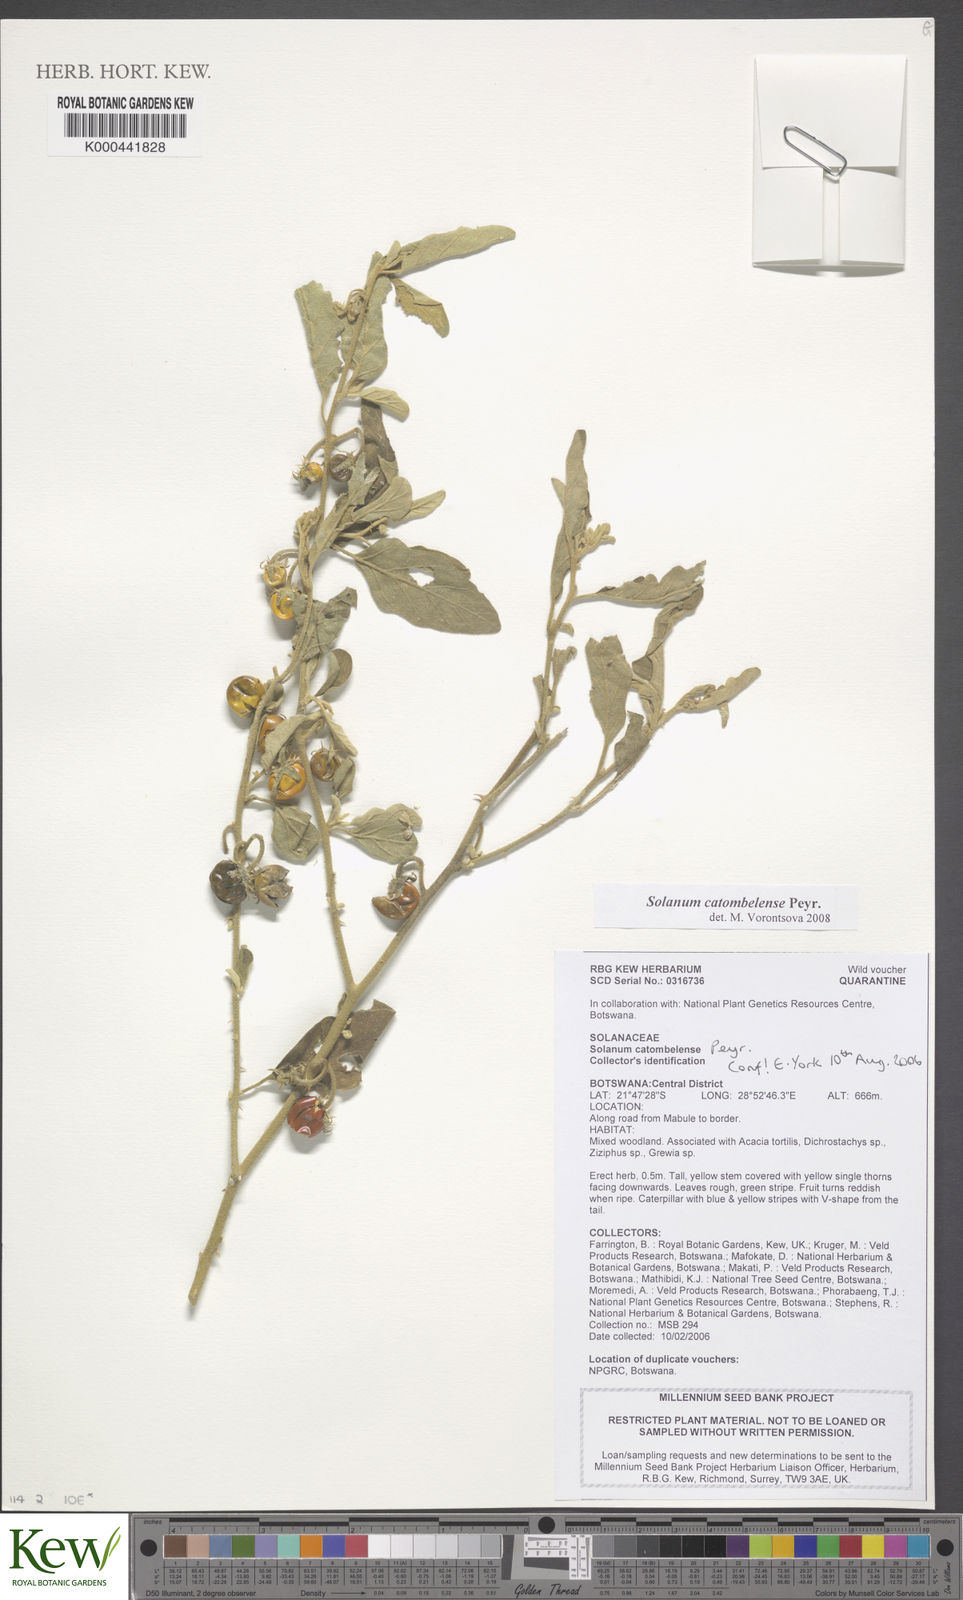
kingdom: Plantae
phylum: Tracheophyta
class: Magnoliopsida
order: Solanales
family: Solanaceae
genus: Solanum
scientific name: Solanum catombelense
